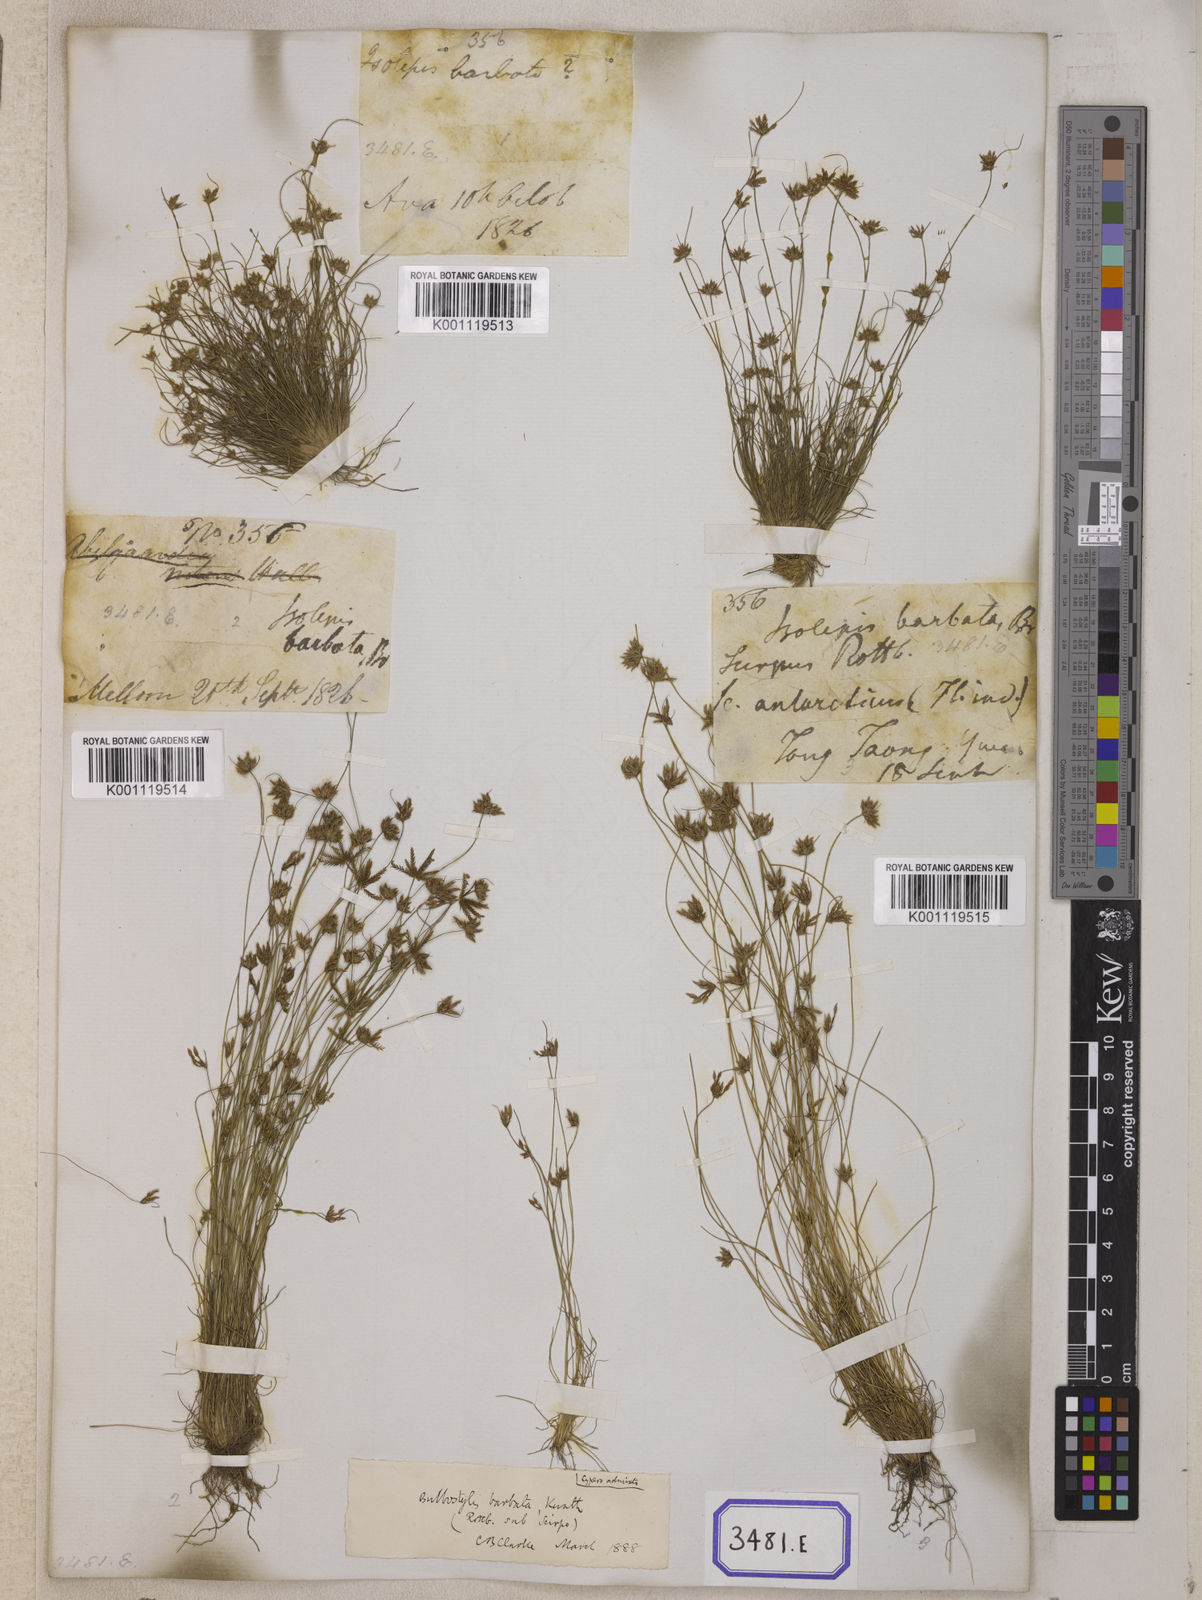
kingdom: Plantae
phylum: Tracheophyta
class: Liliopsida
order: Poales
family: Cyperaceae
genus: Isolepis
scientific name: Isolepis
